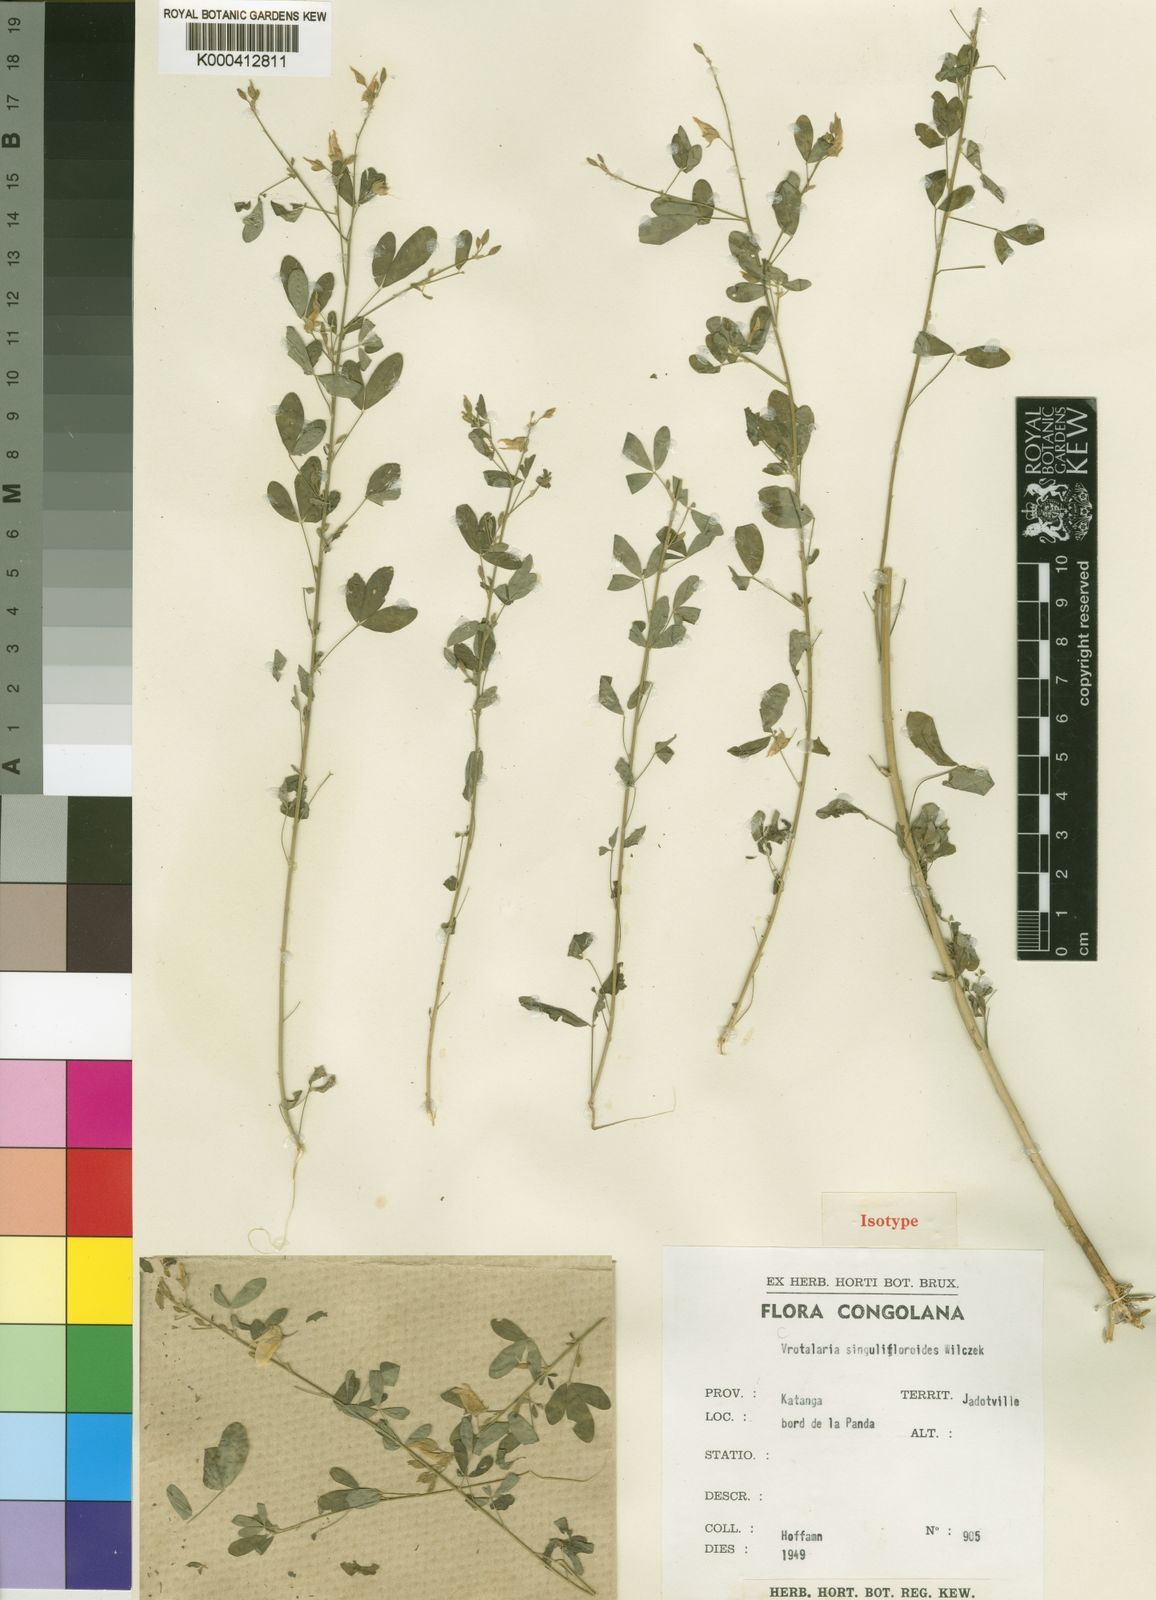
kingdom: Plantae
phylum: Tracheophyta
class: Magnoliopsida
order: Fabales
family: Fabaceae
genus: Crotalaria
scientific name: Crotalaria singulifloroides
